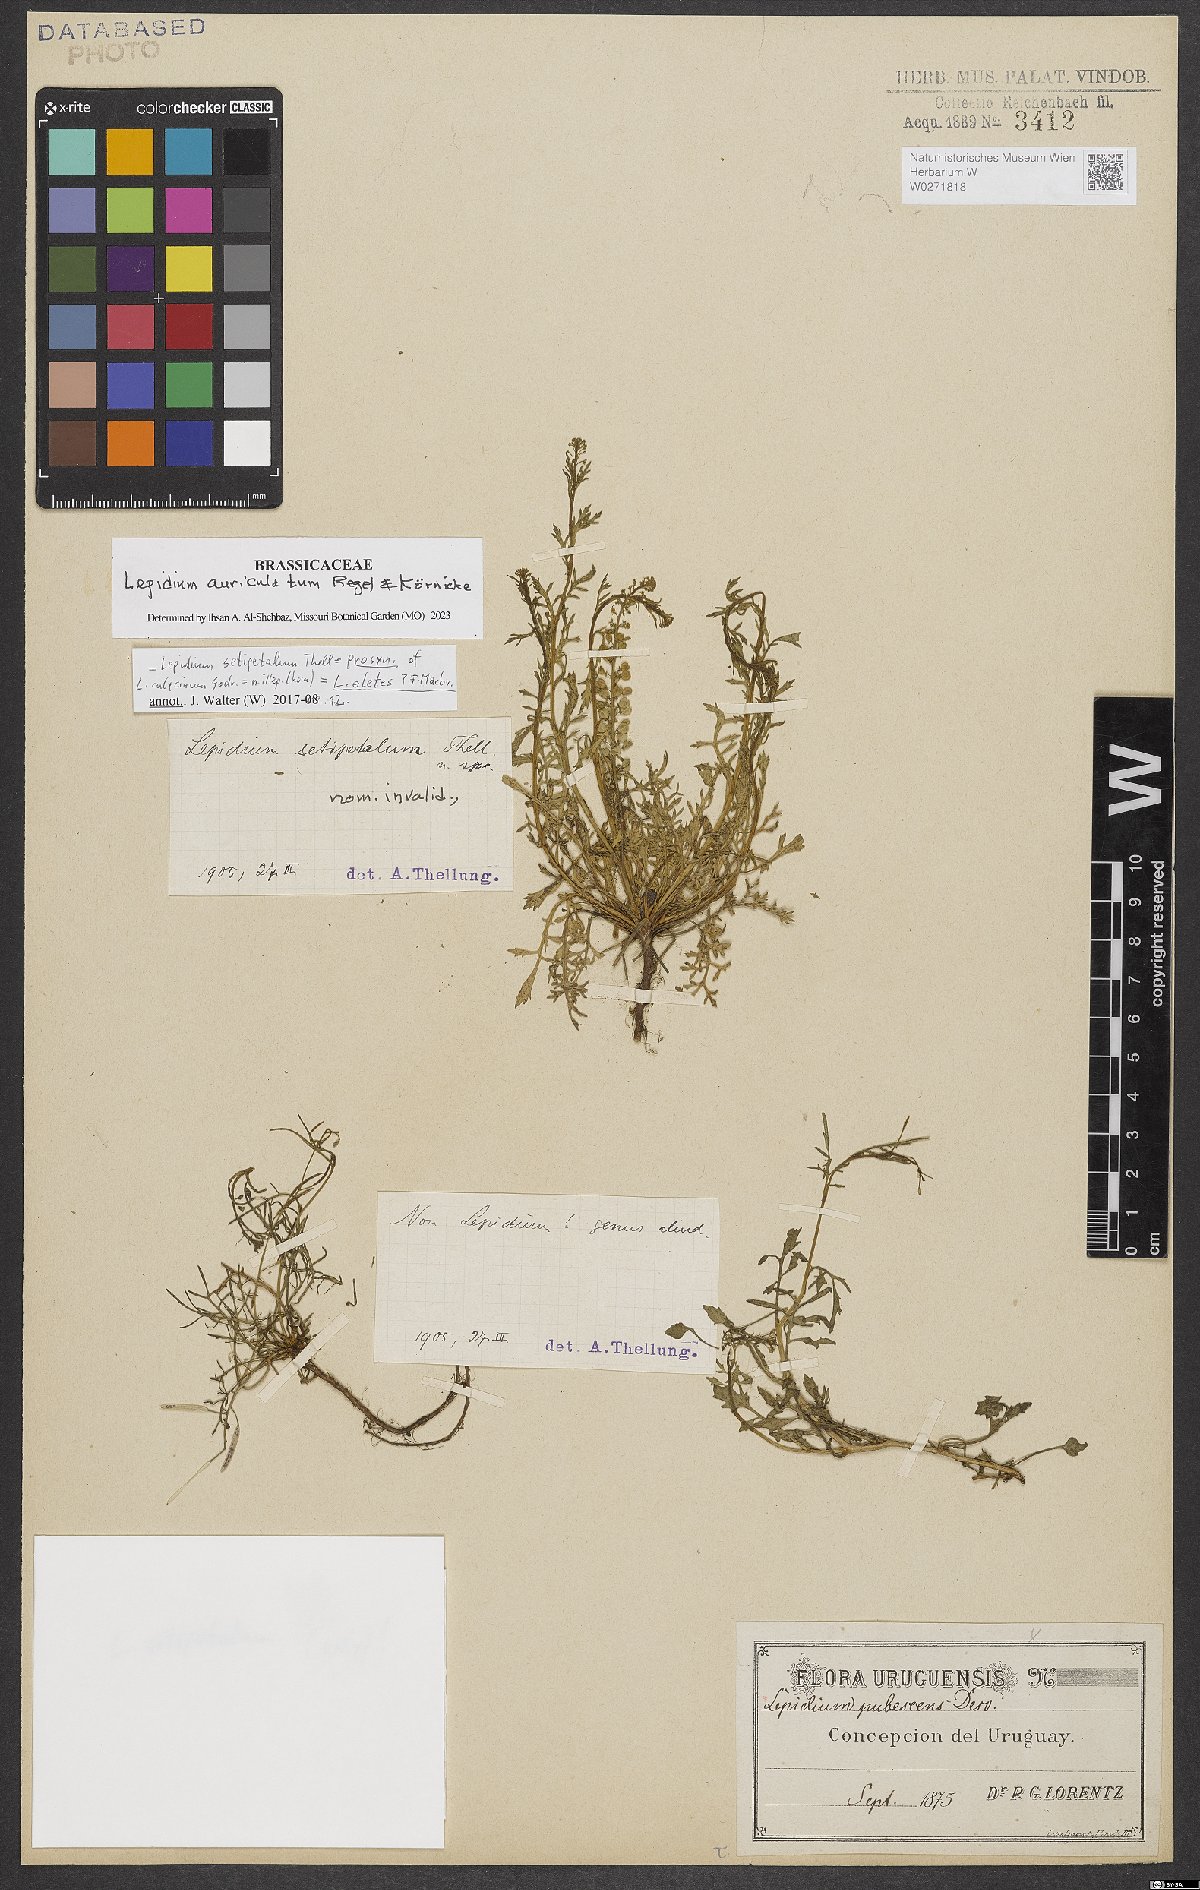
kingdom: Plantae
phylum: Tracheophyta
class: Magnoliopsida
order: Brassicales
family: Brassicaceae
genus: Lepidium
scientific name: Lepidium auriculatum
